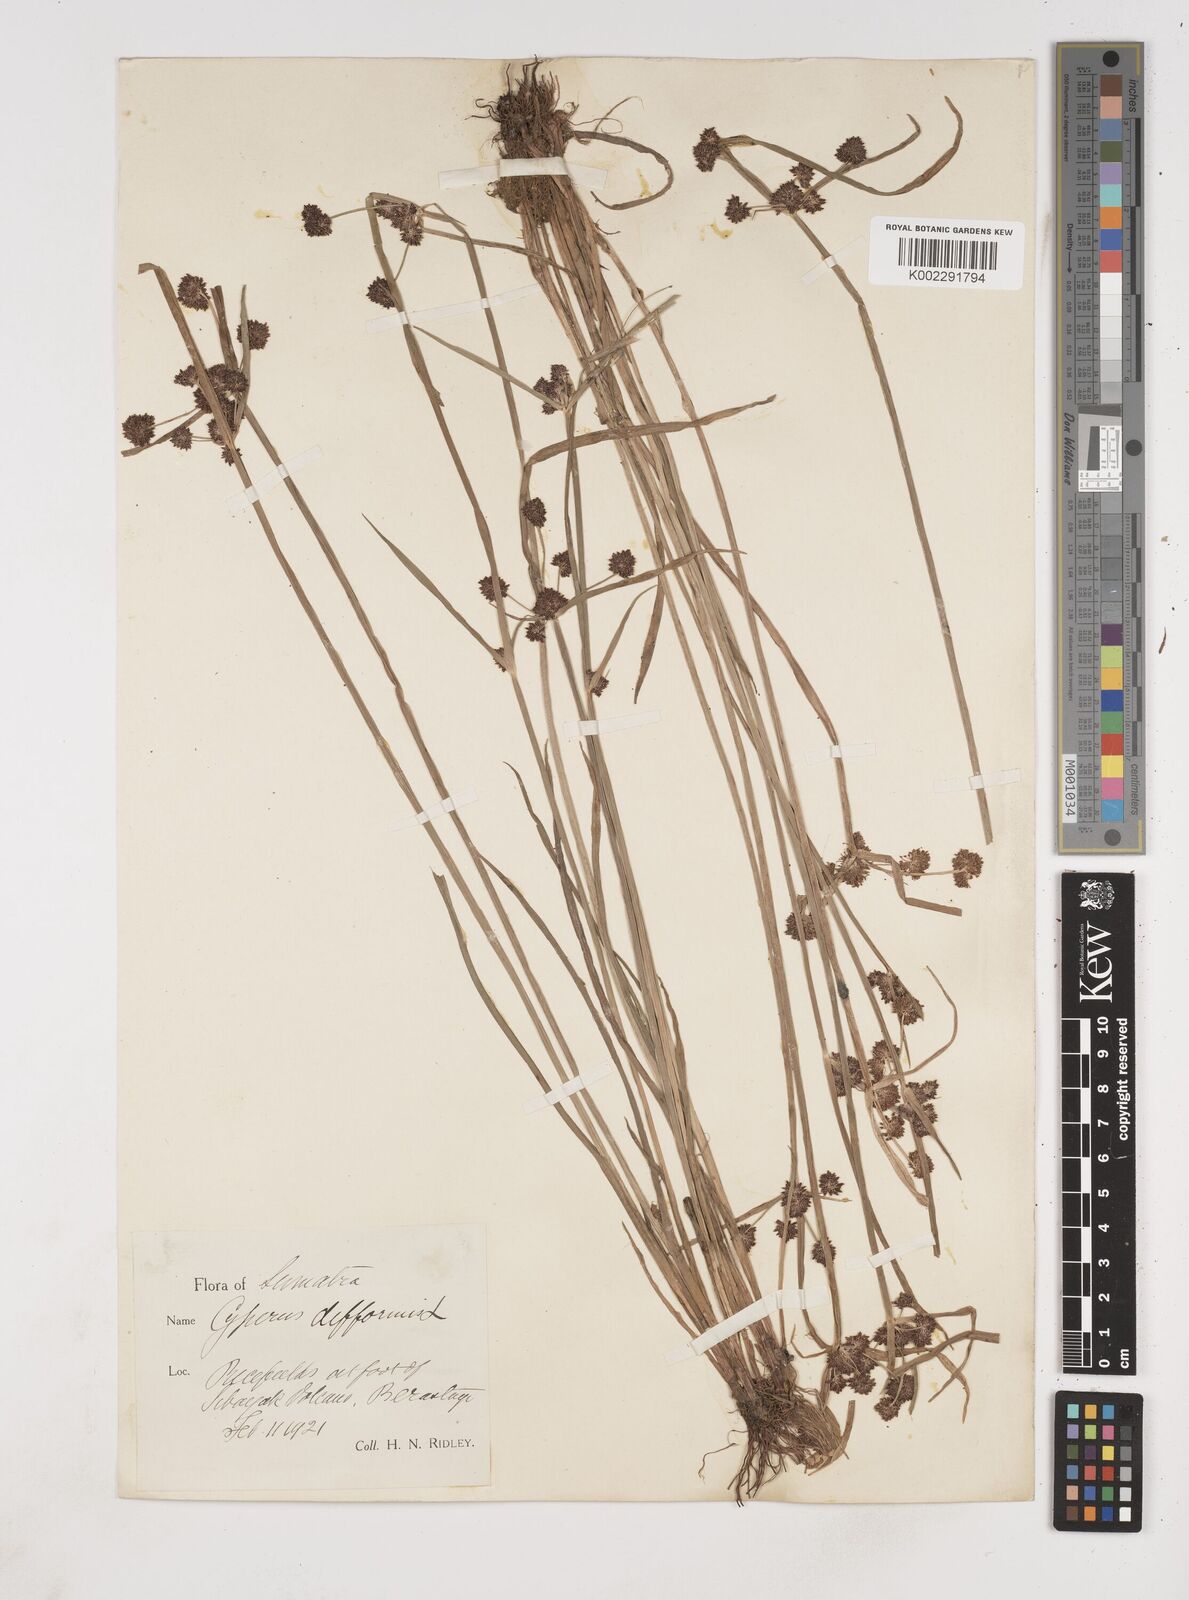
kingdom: Plantae
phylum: Tracheophyta
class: Liliopsida
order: Poales
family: Cyperaceae
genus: Cyperus
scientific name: Cyperus difformis
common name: Variable flatsedge
